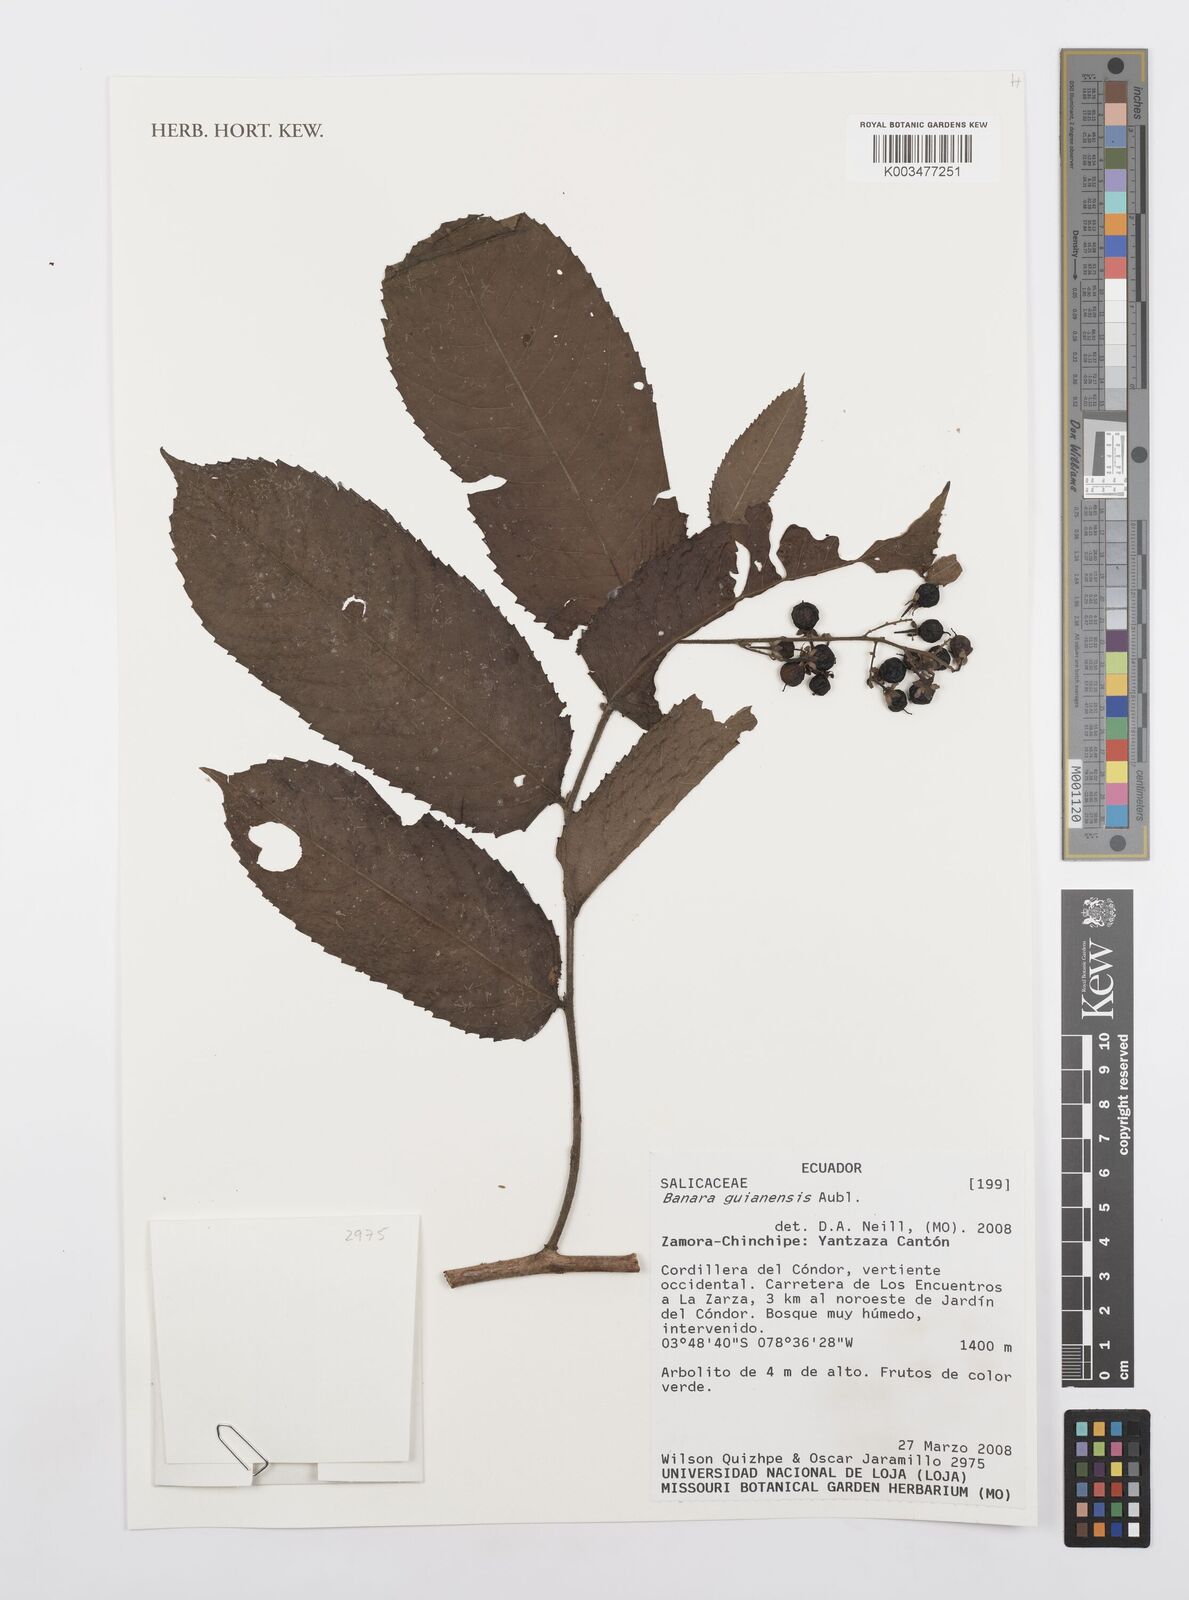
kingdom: Plantae
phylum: Tracheophyta
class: Magnoliopsida
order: Malpighiales
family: Salicaceae
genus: Banara
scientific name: Banara guianensis
